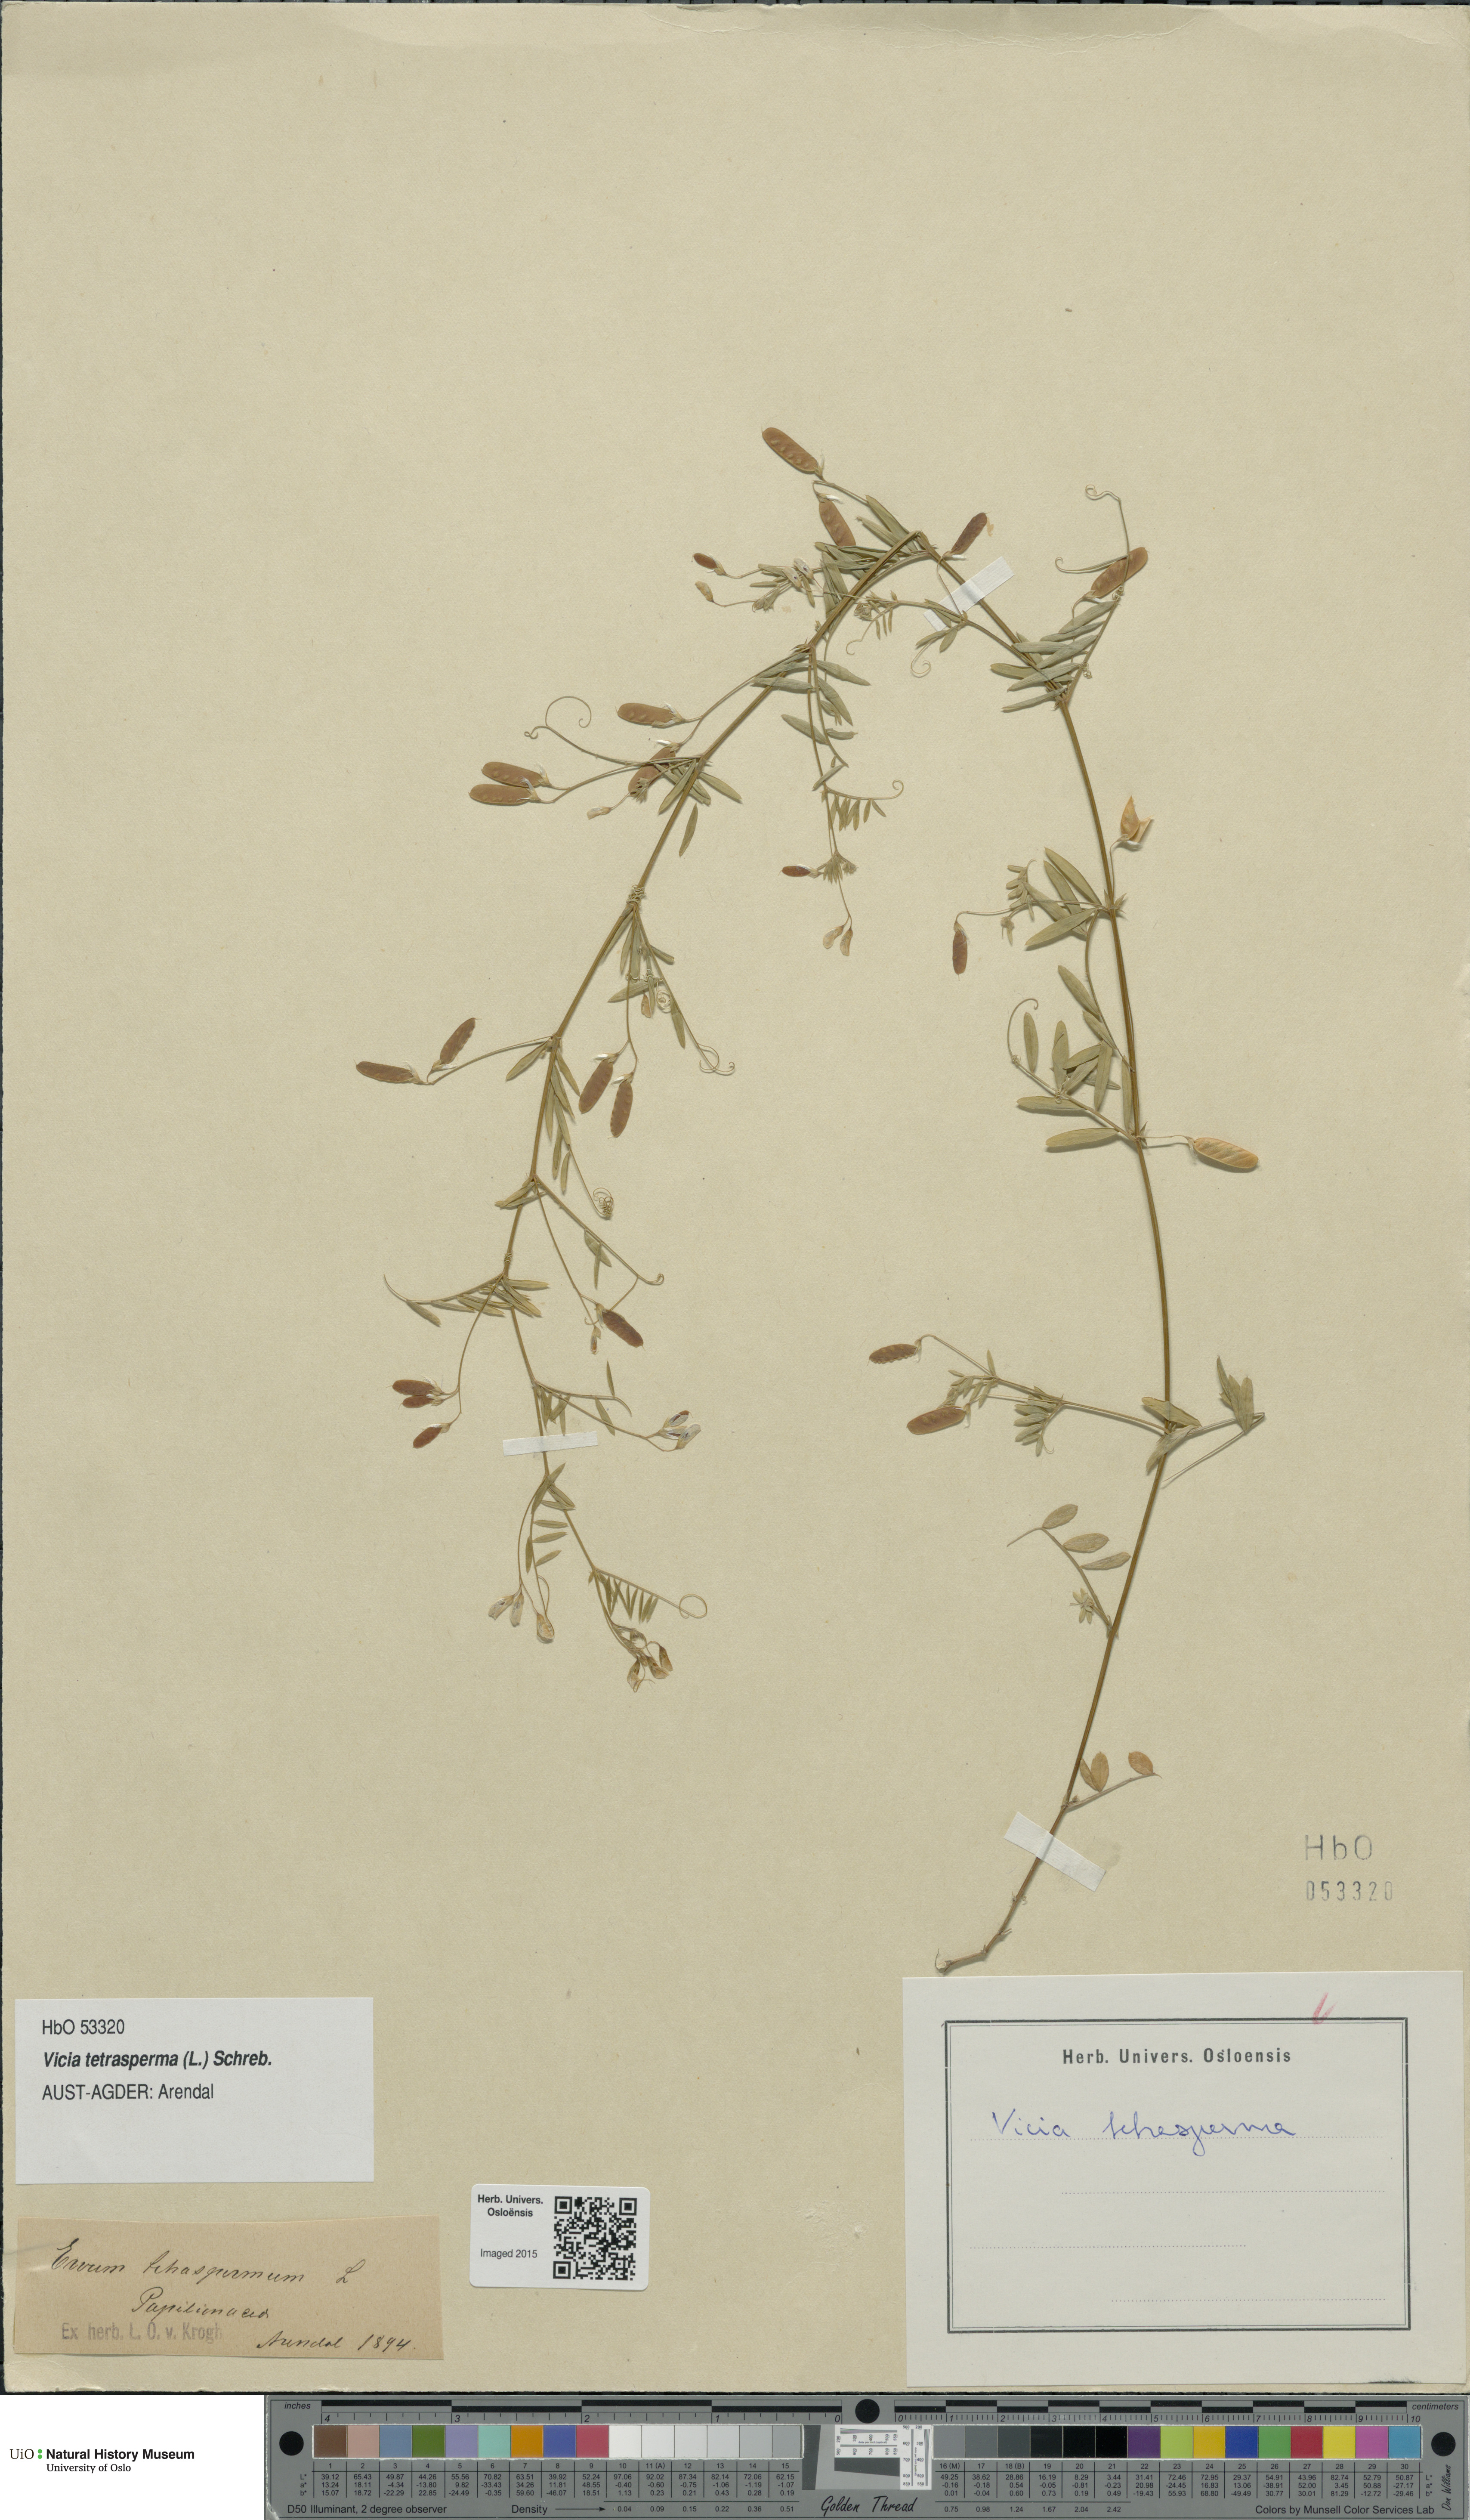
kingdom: Plantae
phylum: Tracheophyta
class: Magnoliopsida
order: Fabales
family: Fabaceae
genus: Vicia
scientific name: Vicia tetrasperma
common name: Smooth tare
